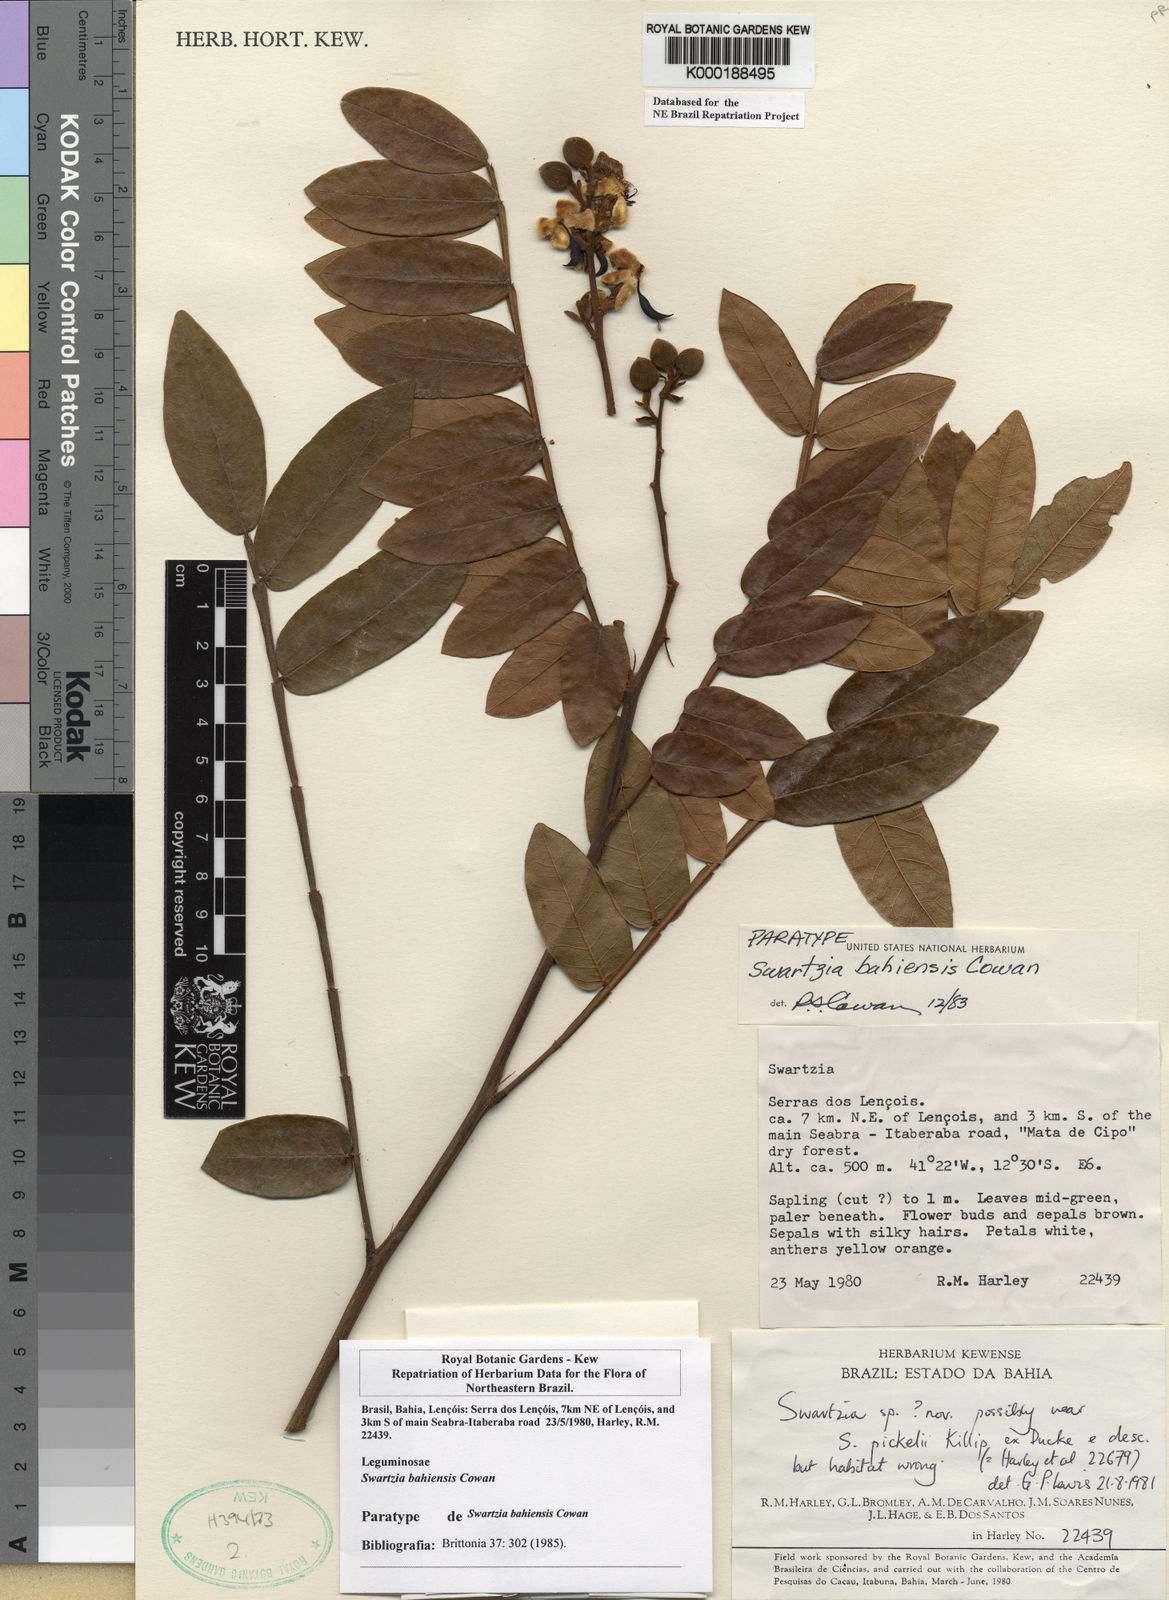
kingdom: Plantae
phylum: Tracheophyta
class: Magnoliopsida
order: Fabales
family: Fabaceae
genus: Swartzia
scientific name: Swartzia bahiensis
